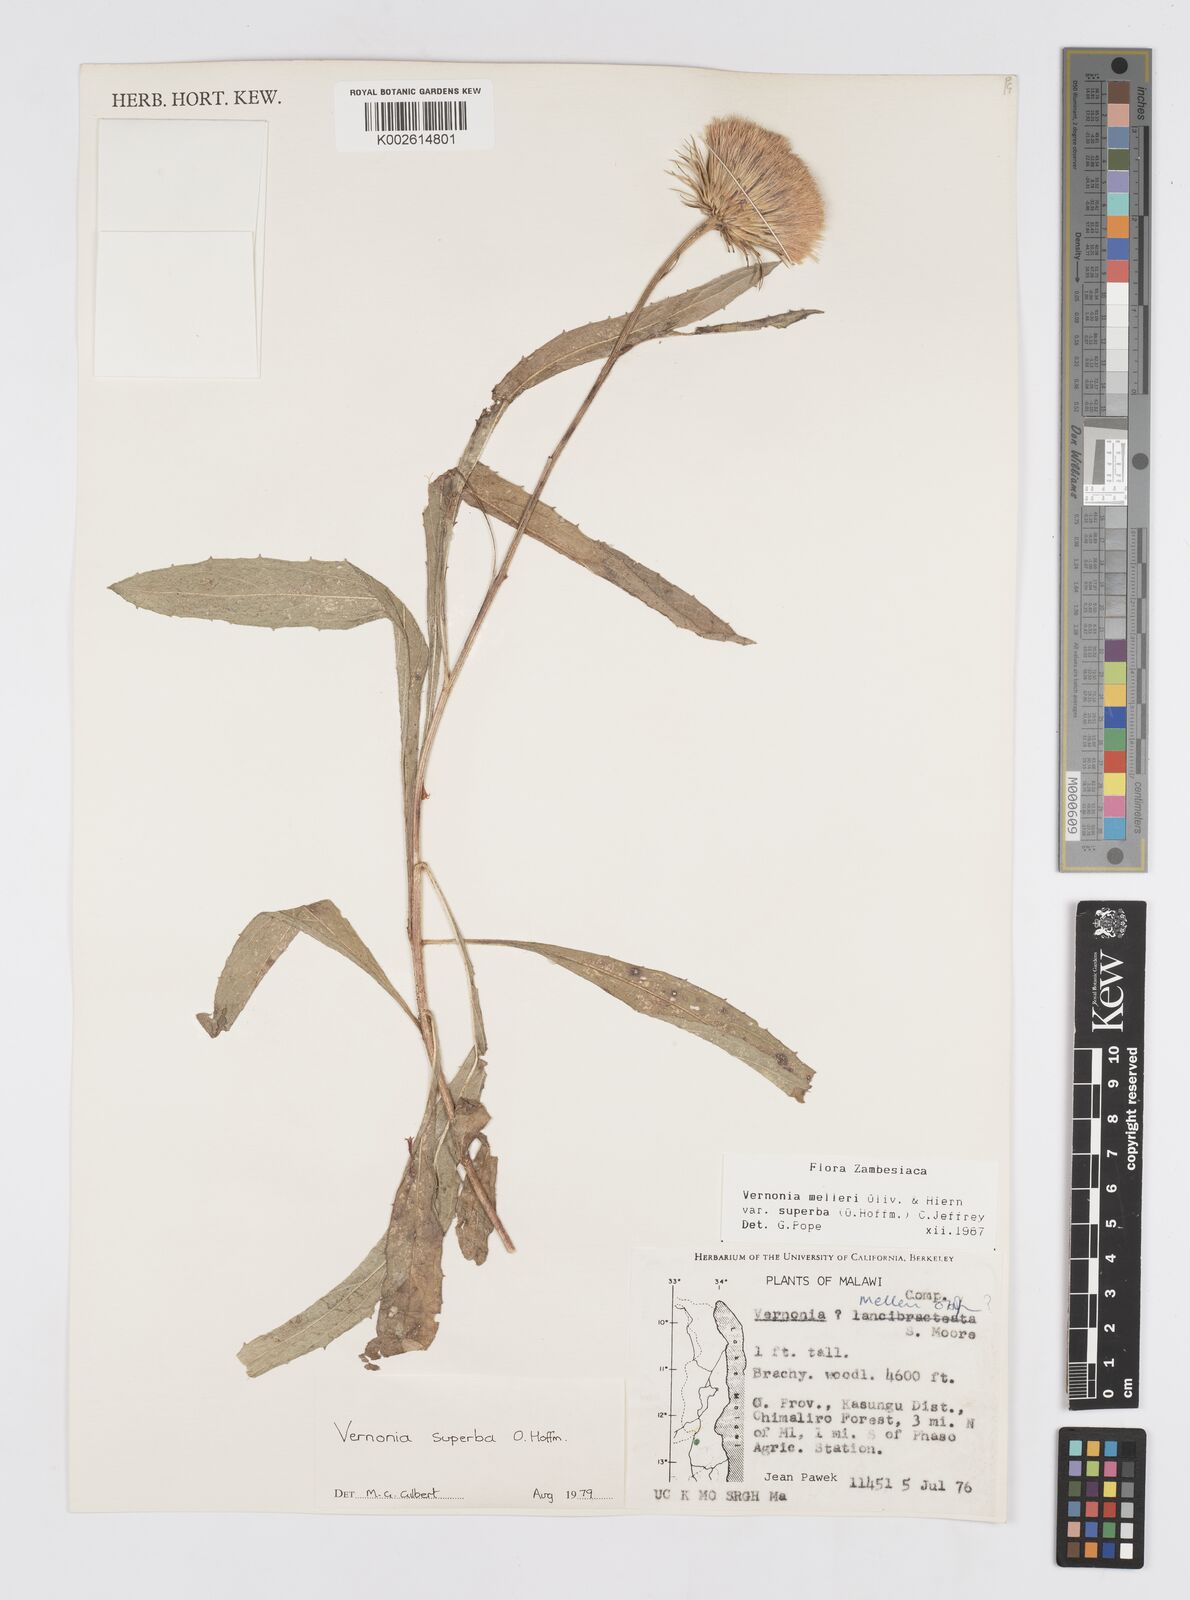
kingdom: Plantae
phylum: Tracheophyta
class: Magnoliopsida
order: Asterales
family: Asteraceae
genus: Linzia
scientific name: Linzia melleri
